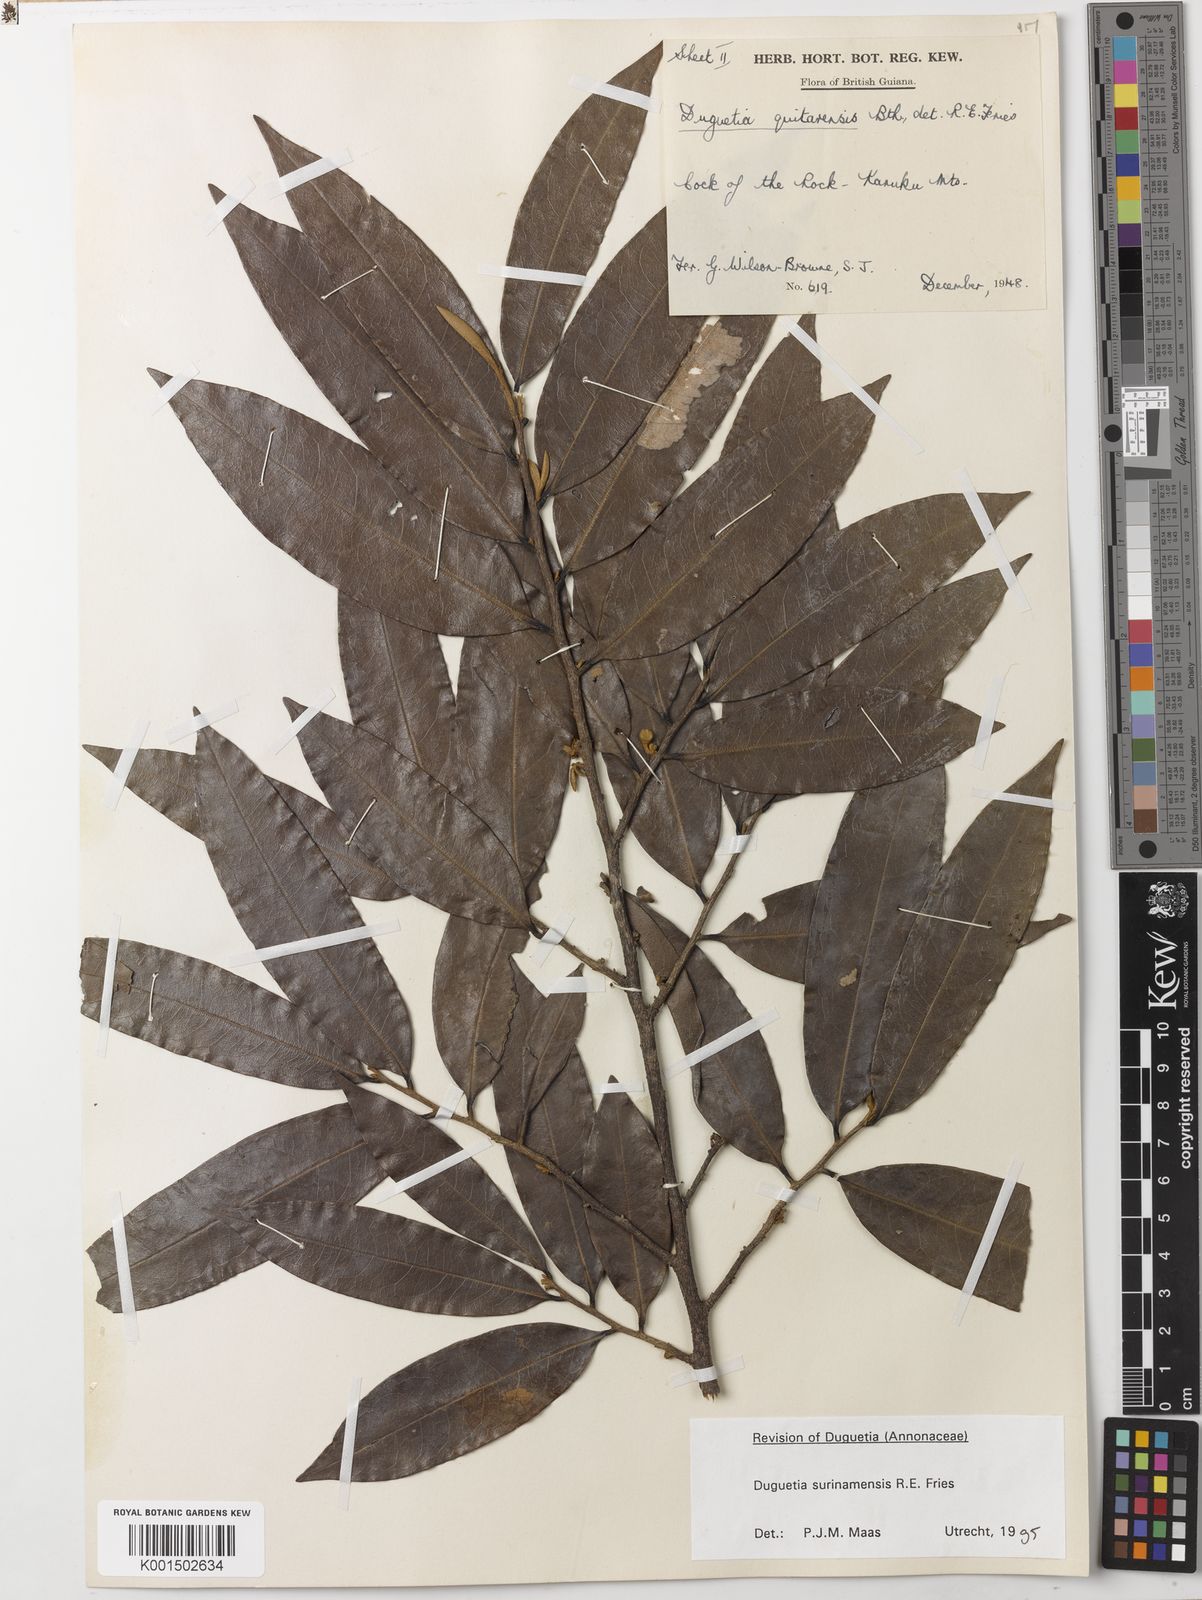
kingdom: Plantae
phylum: Tracheophyta
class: Magnoliopsida
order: Magnoliales
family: Annonaceae
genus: Duguetia
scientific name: Duguetia surinamensis
